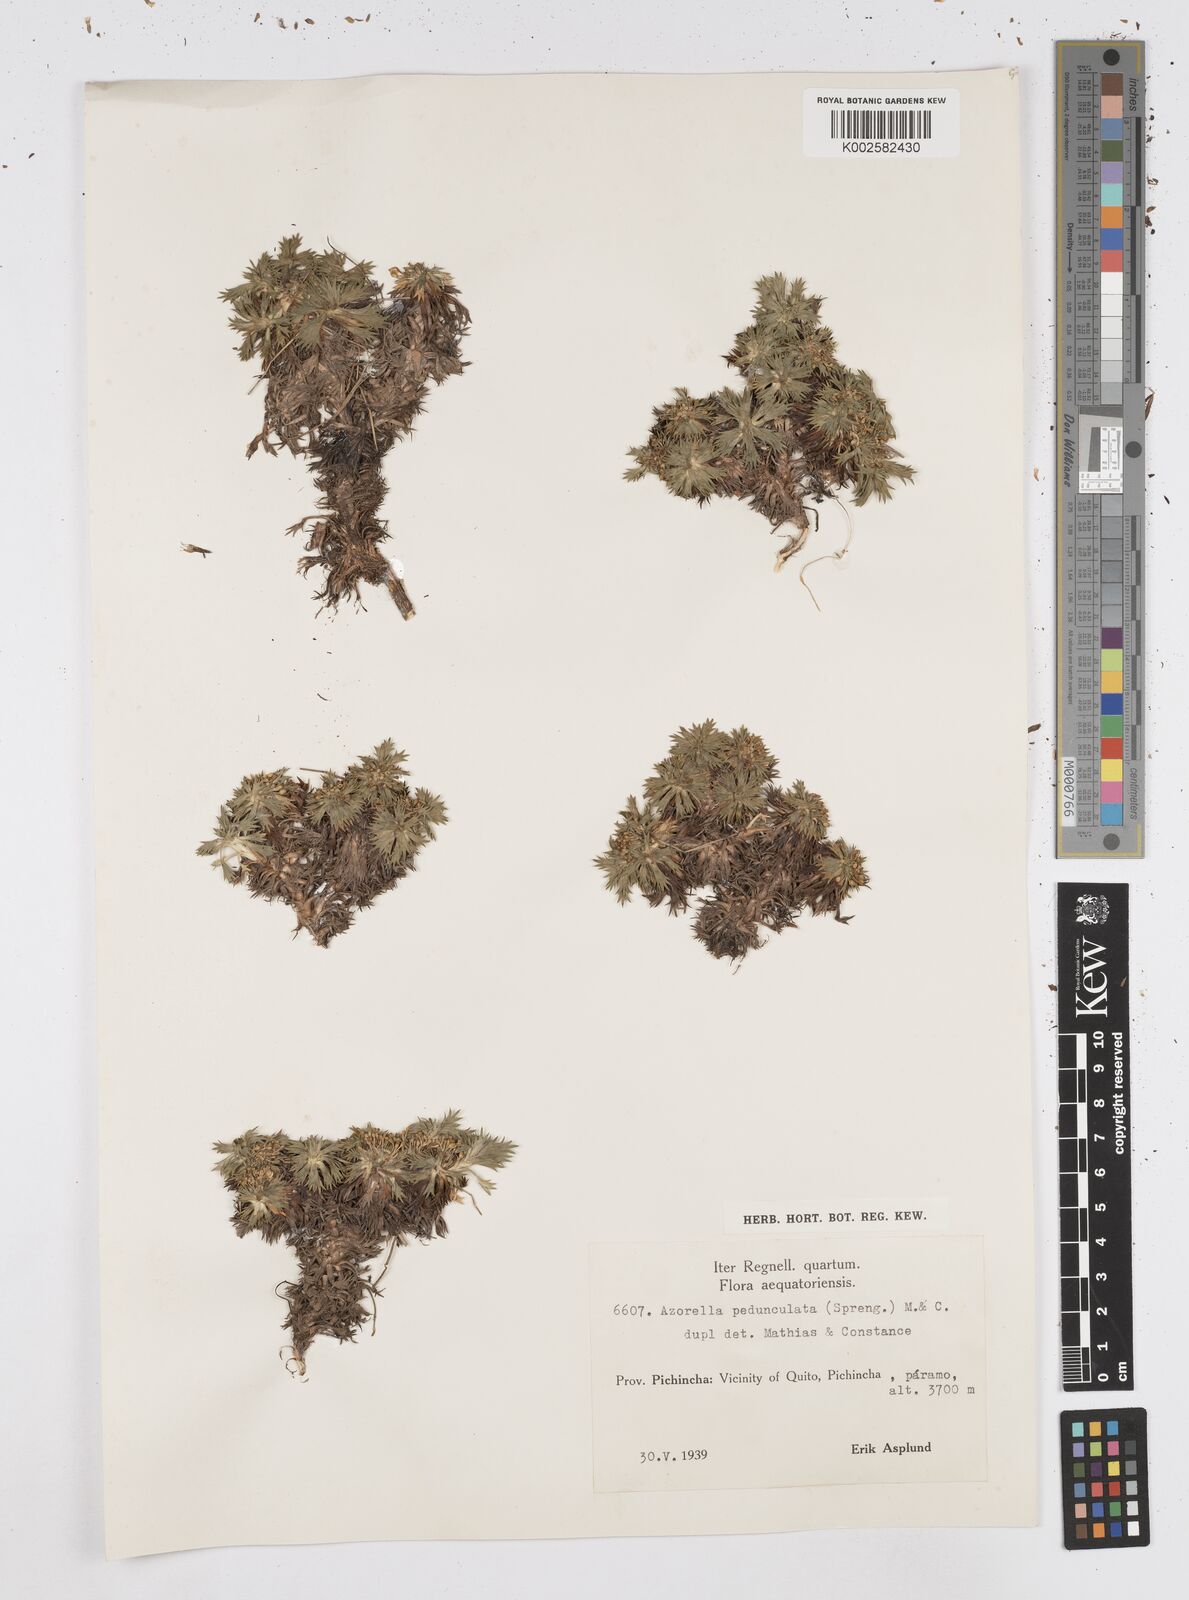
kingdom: Plantae
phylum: Tracheophyta
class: Magnoliopsida
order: Apiales
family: Apiaceae
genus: Azorella
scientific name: Azorella pedunculata
